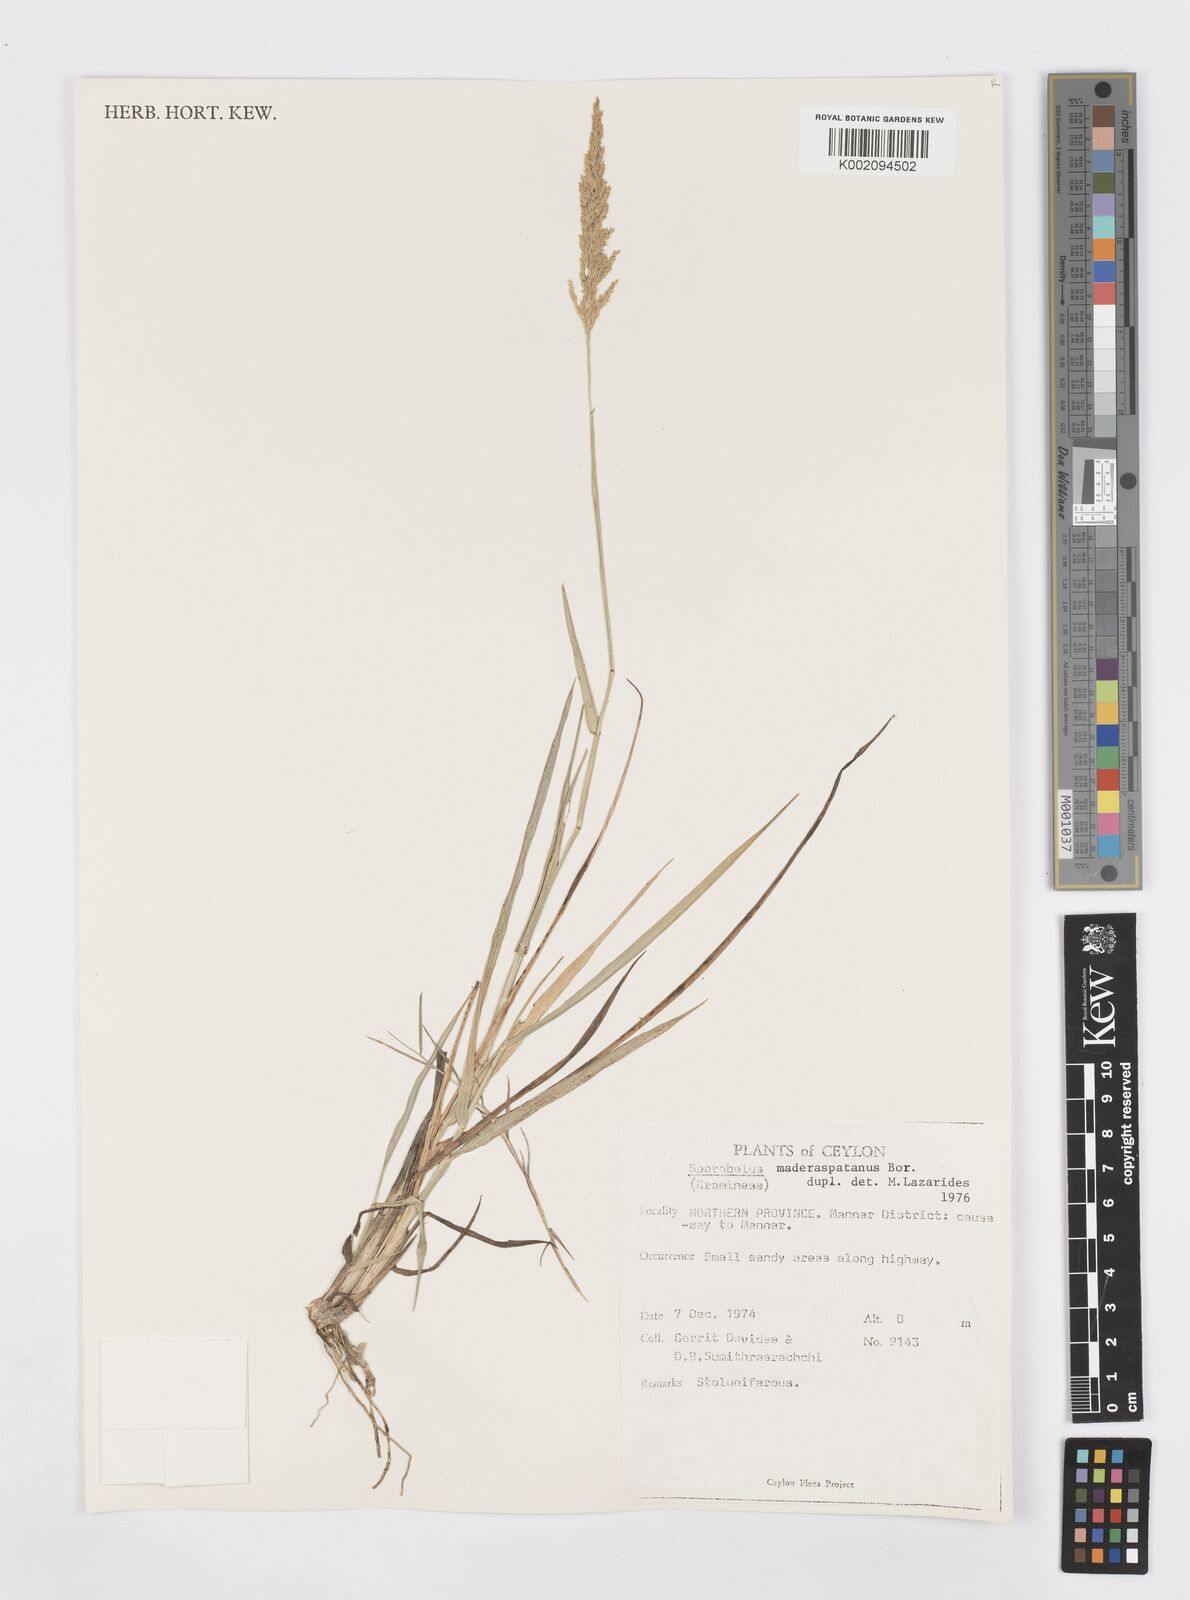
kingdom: Plantae
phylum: Tracheophyta
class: Liliopsida
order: Poales
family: Poaceae
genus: Sporobolus
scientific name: Sporobolus maderaspatanus
